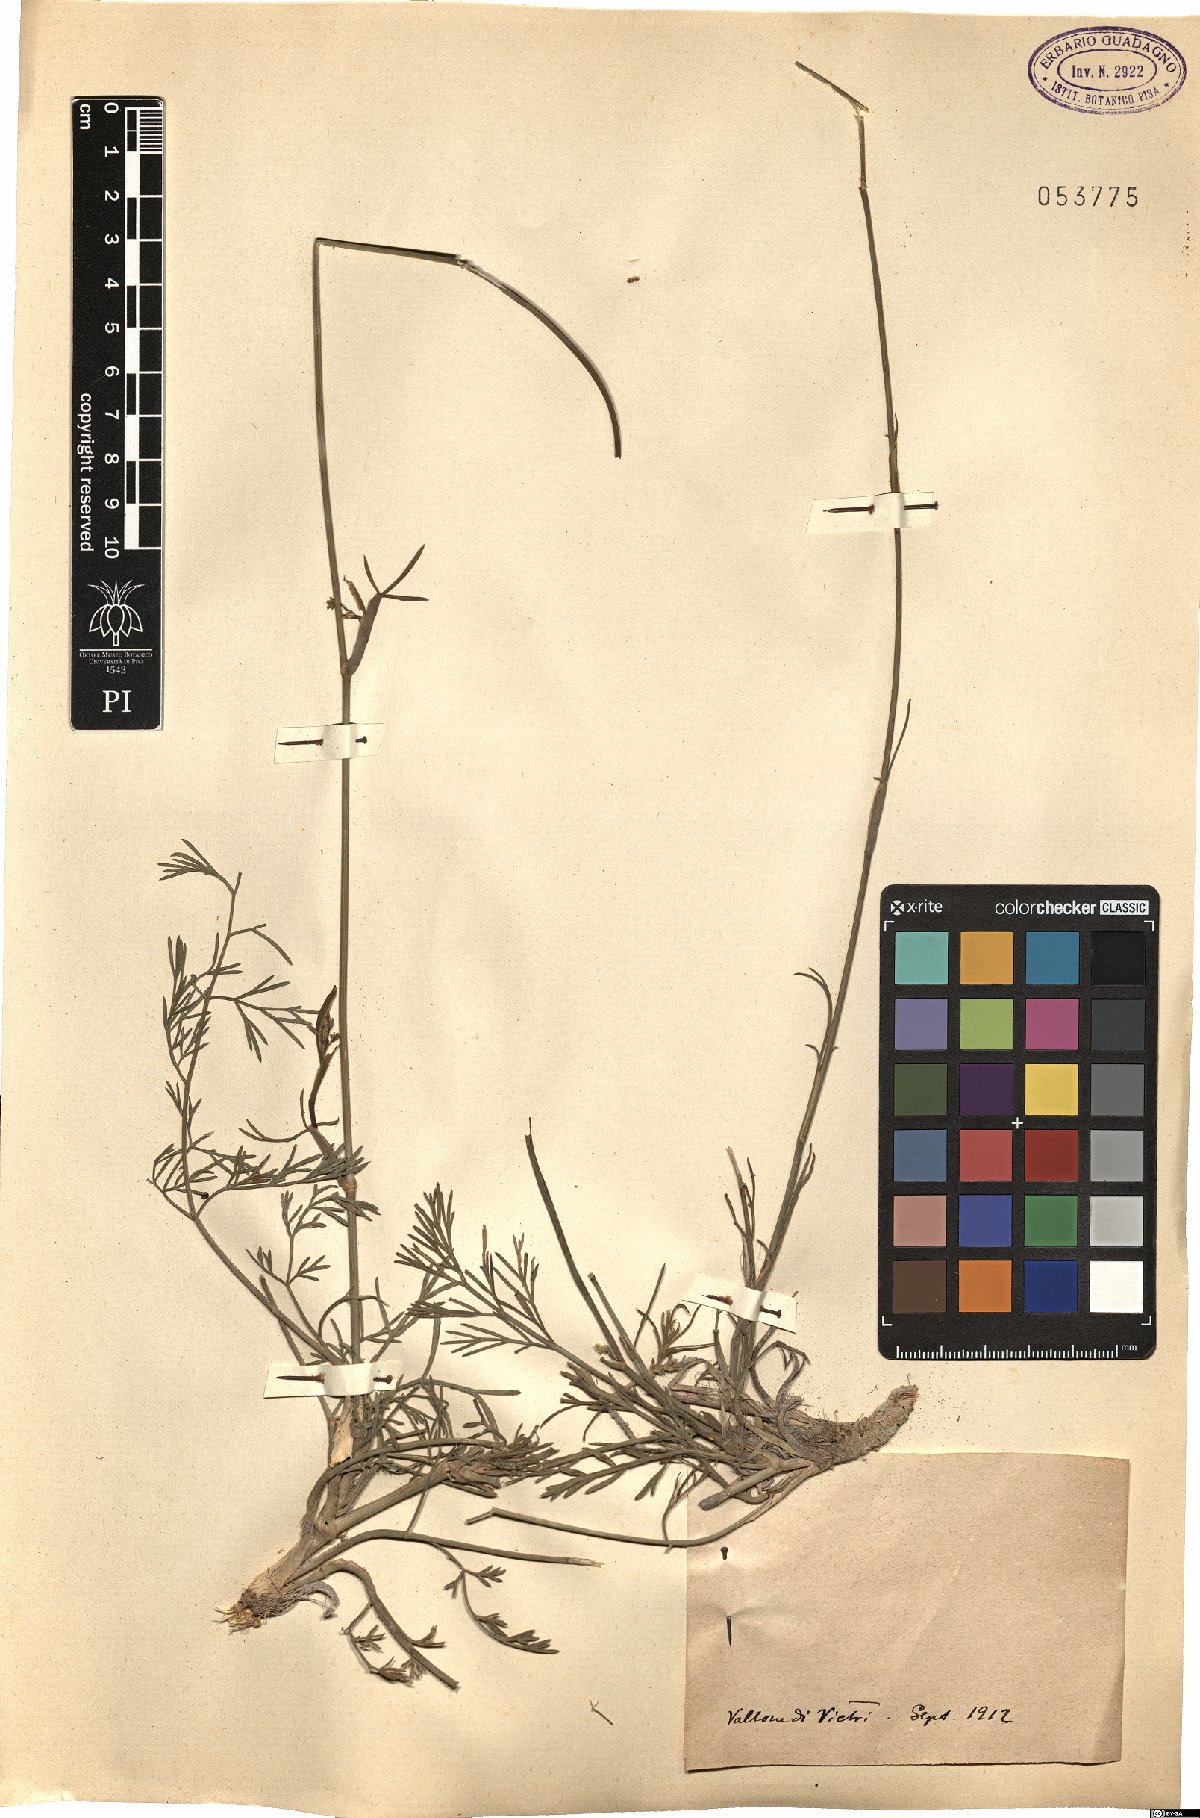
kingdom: Plantae
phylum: Tracheophyta
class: Magnoliopsida
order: Apiales
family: Apiaceae
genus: Seseli
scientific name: Seseli
